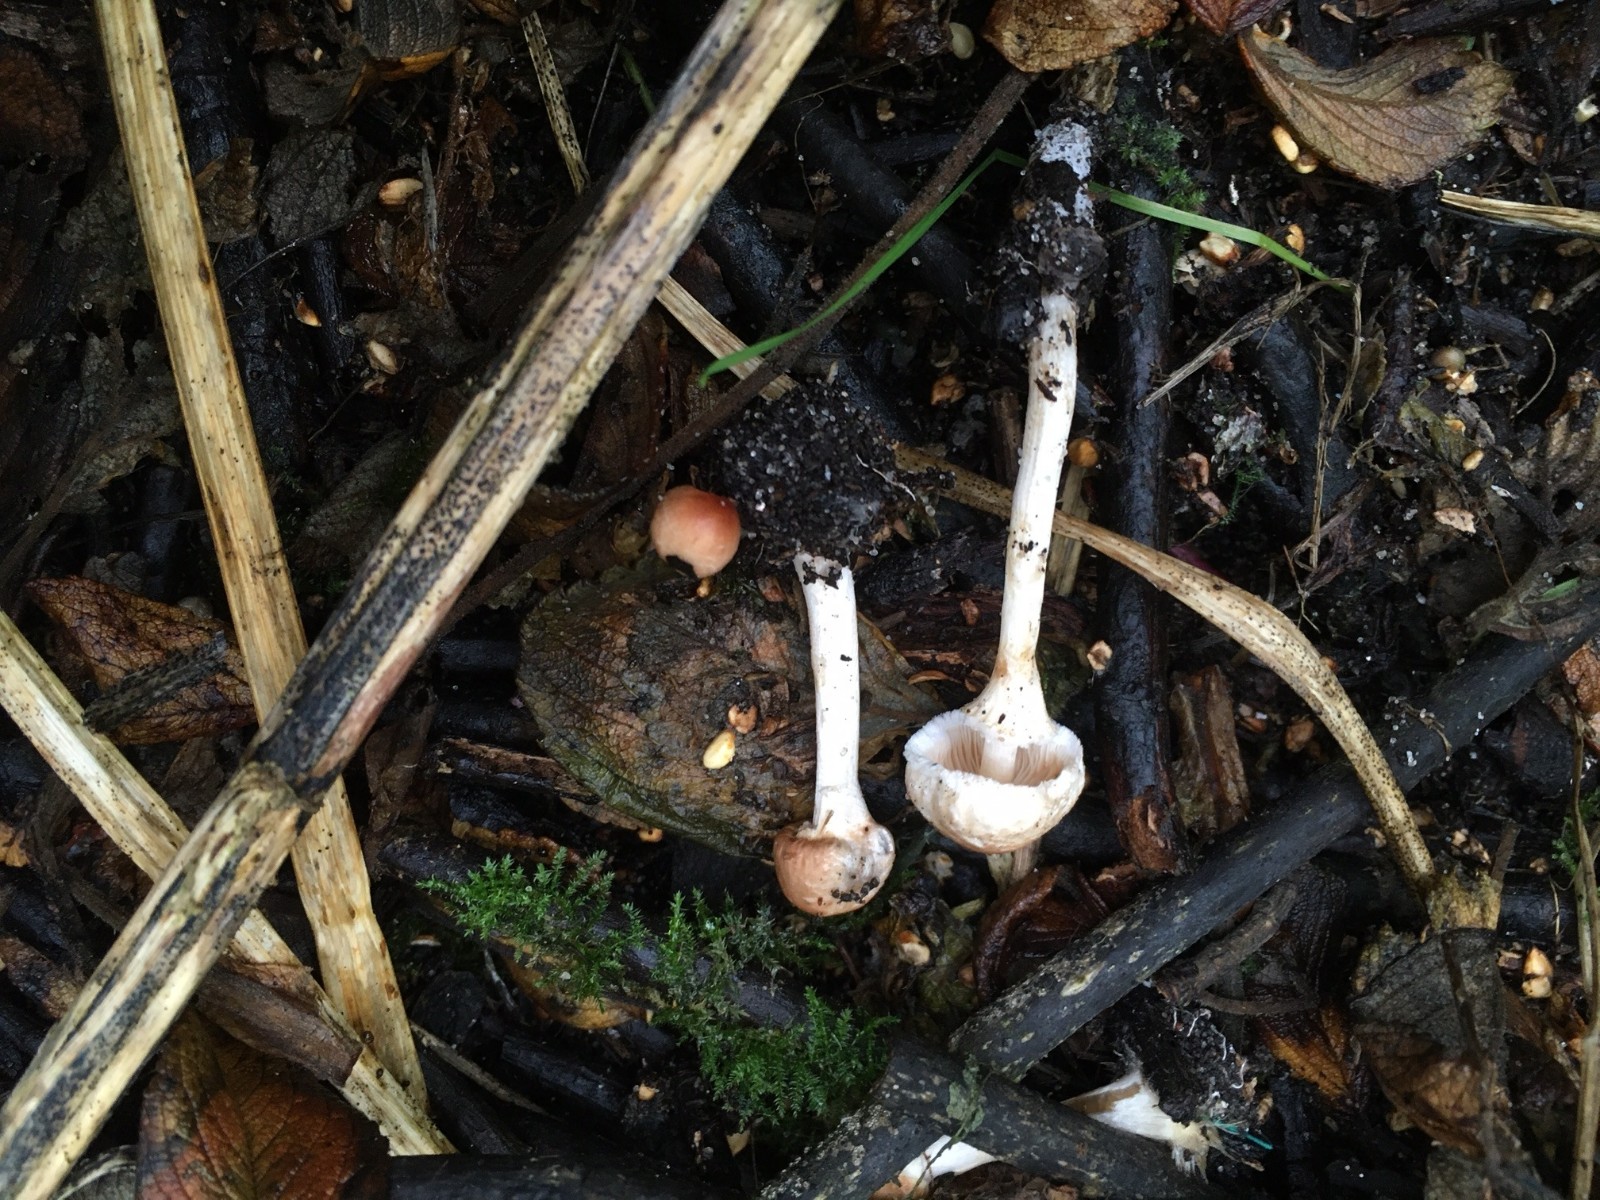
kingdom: Fungi
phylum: Basidiomycota
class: Agaricomycetes
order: Agaricales
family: Agaricaceae
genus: Lepiota
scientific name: Lepiota cristata
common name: stinkende parasolhat
